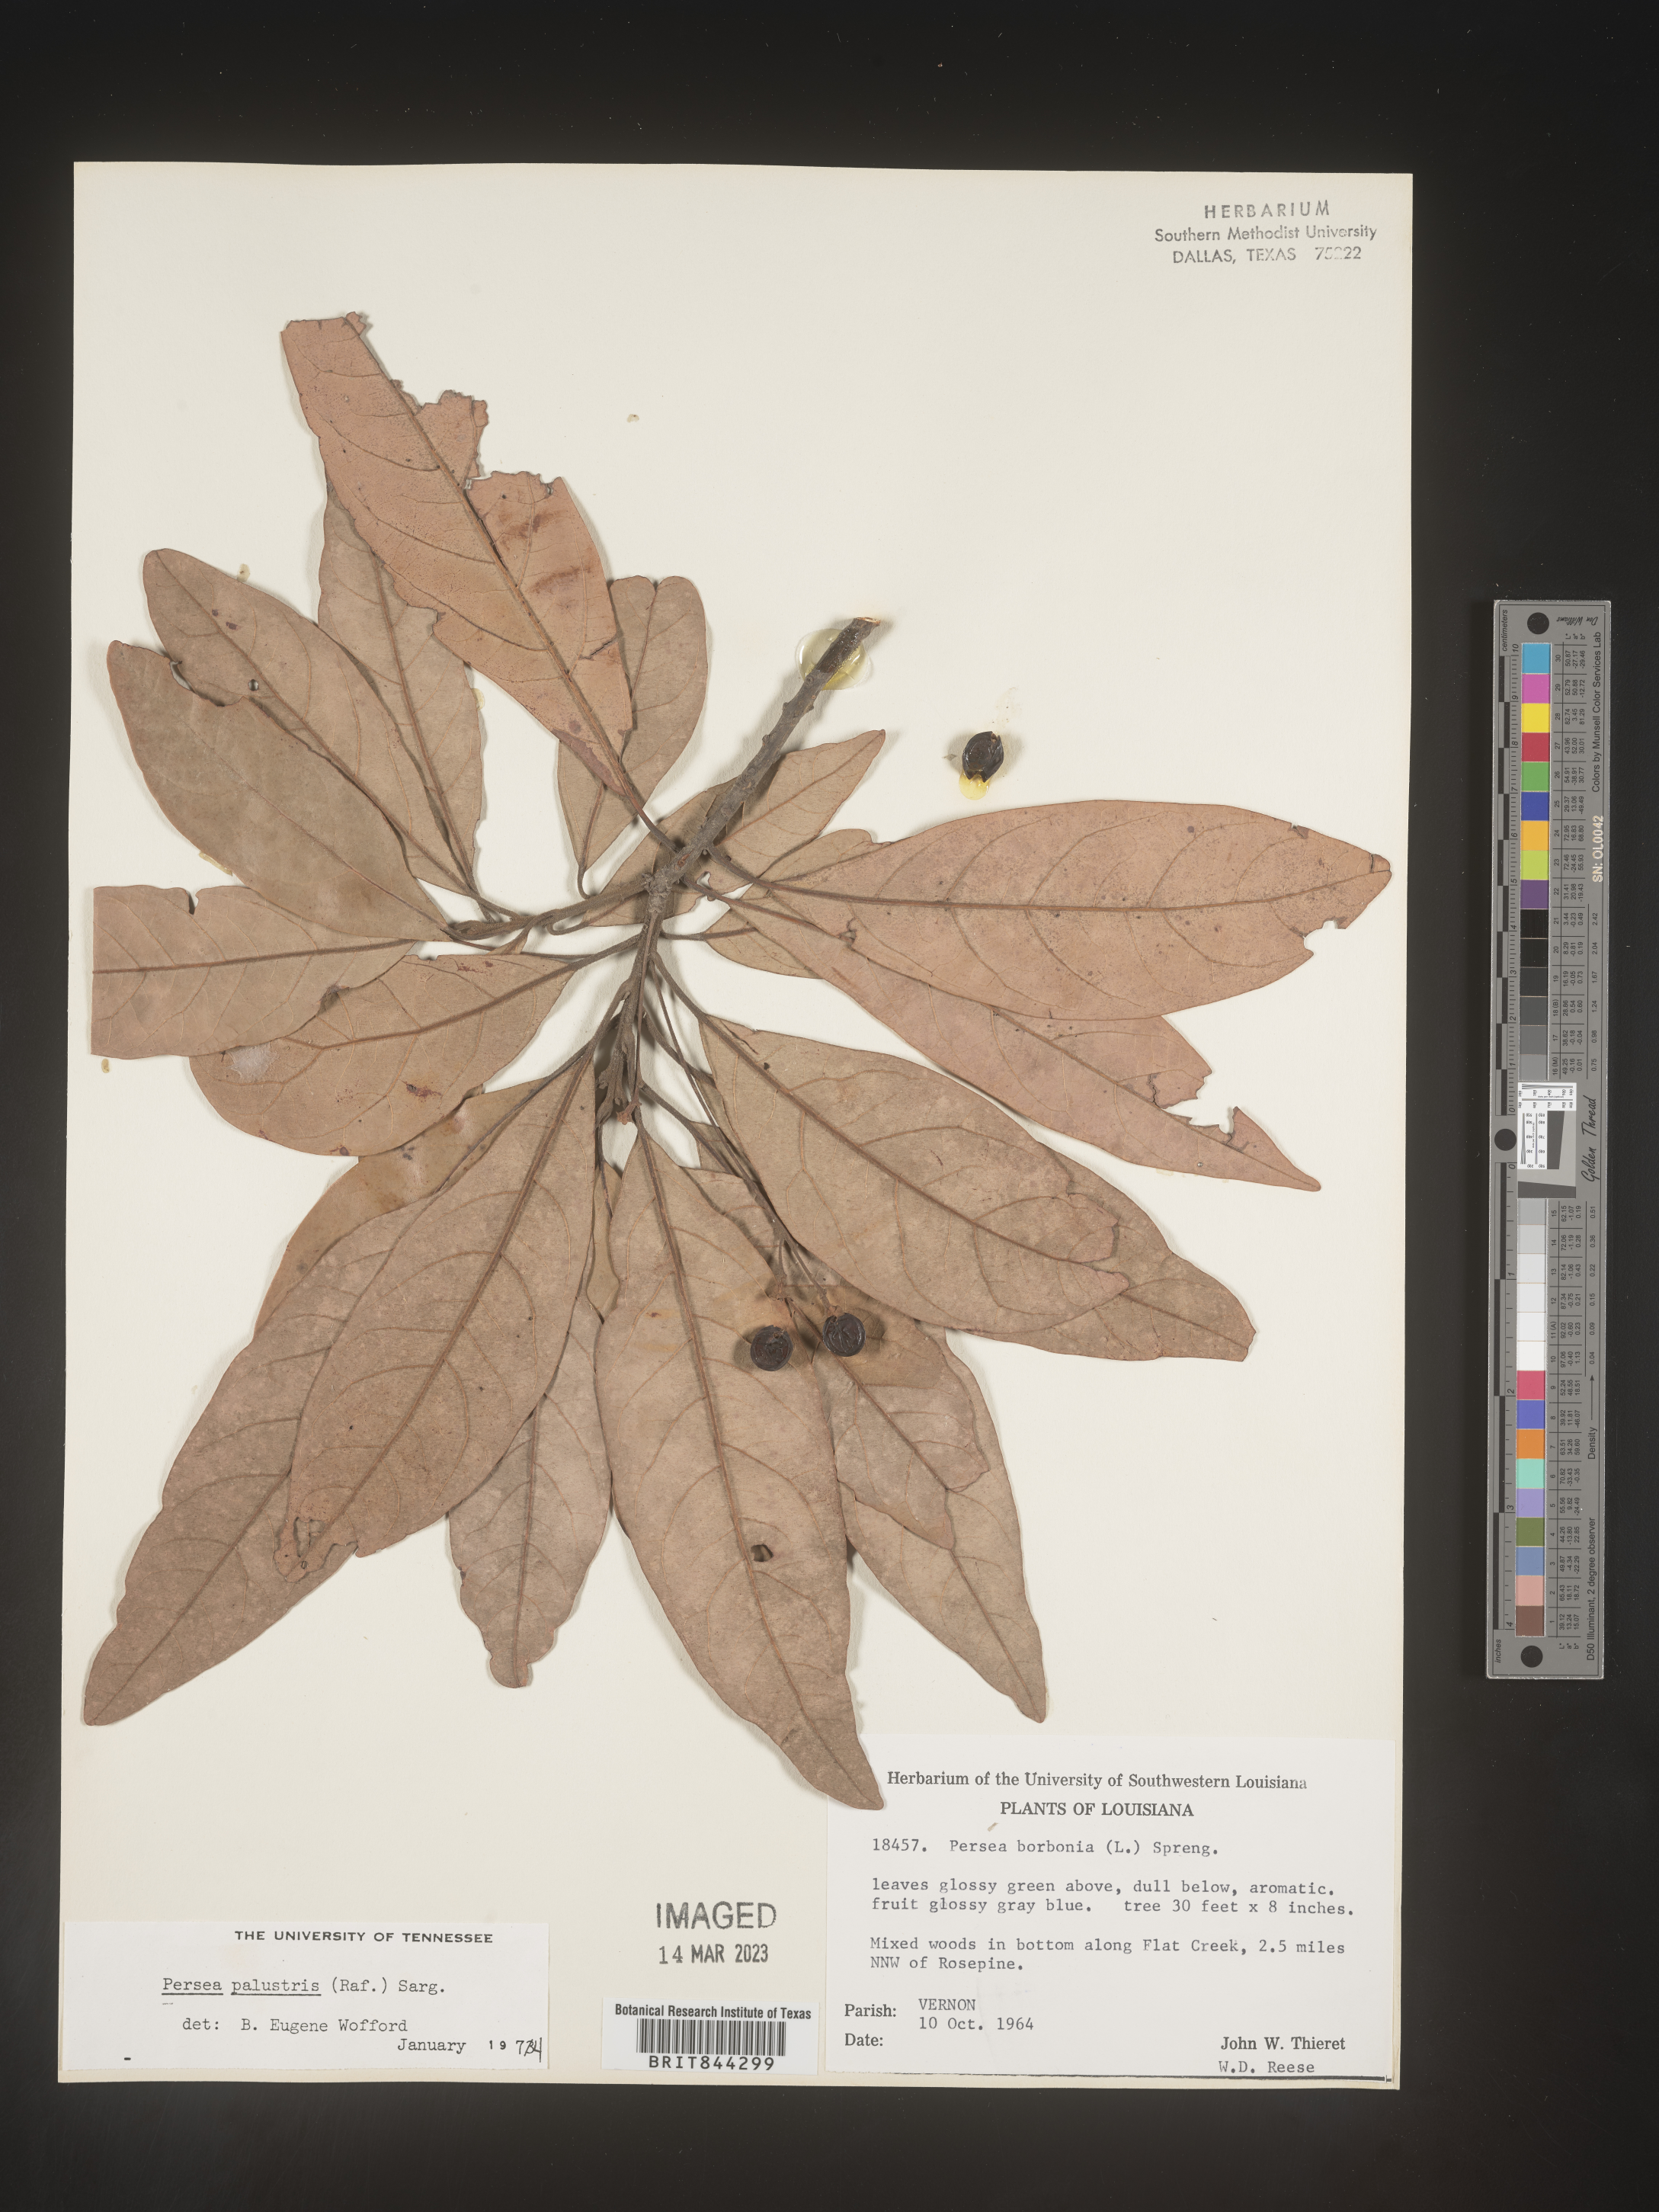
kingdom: Plantae
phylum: Tracheophyta
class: Magnoliopsida
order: Laurales
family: Lauraceae
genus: Persea
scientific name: Persea palustris
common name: Swampbay
